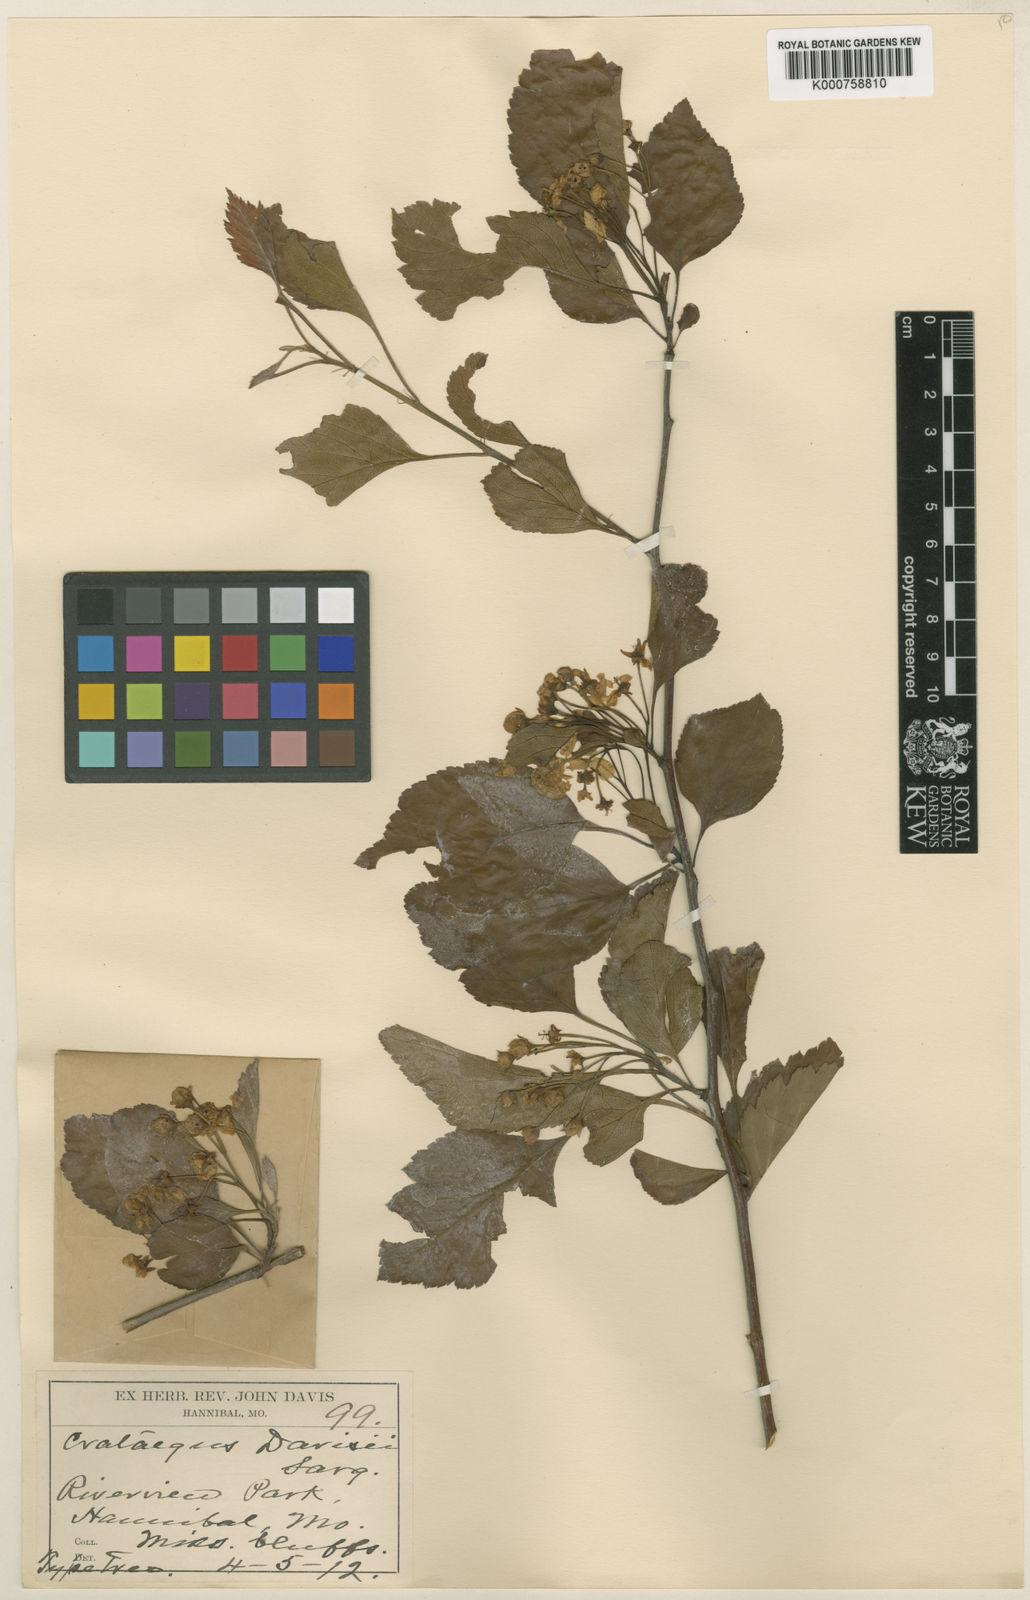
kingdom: Plantae
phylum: Tracheophyta
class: Magnoliopsida
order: Rosales
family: Rosaceae
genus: Crataegus
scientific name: Crataegus viridis
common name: Southernthorn
